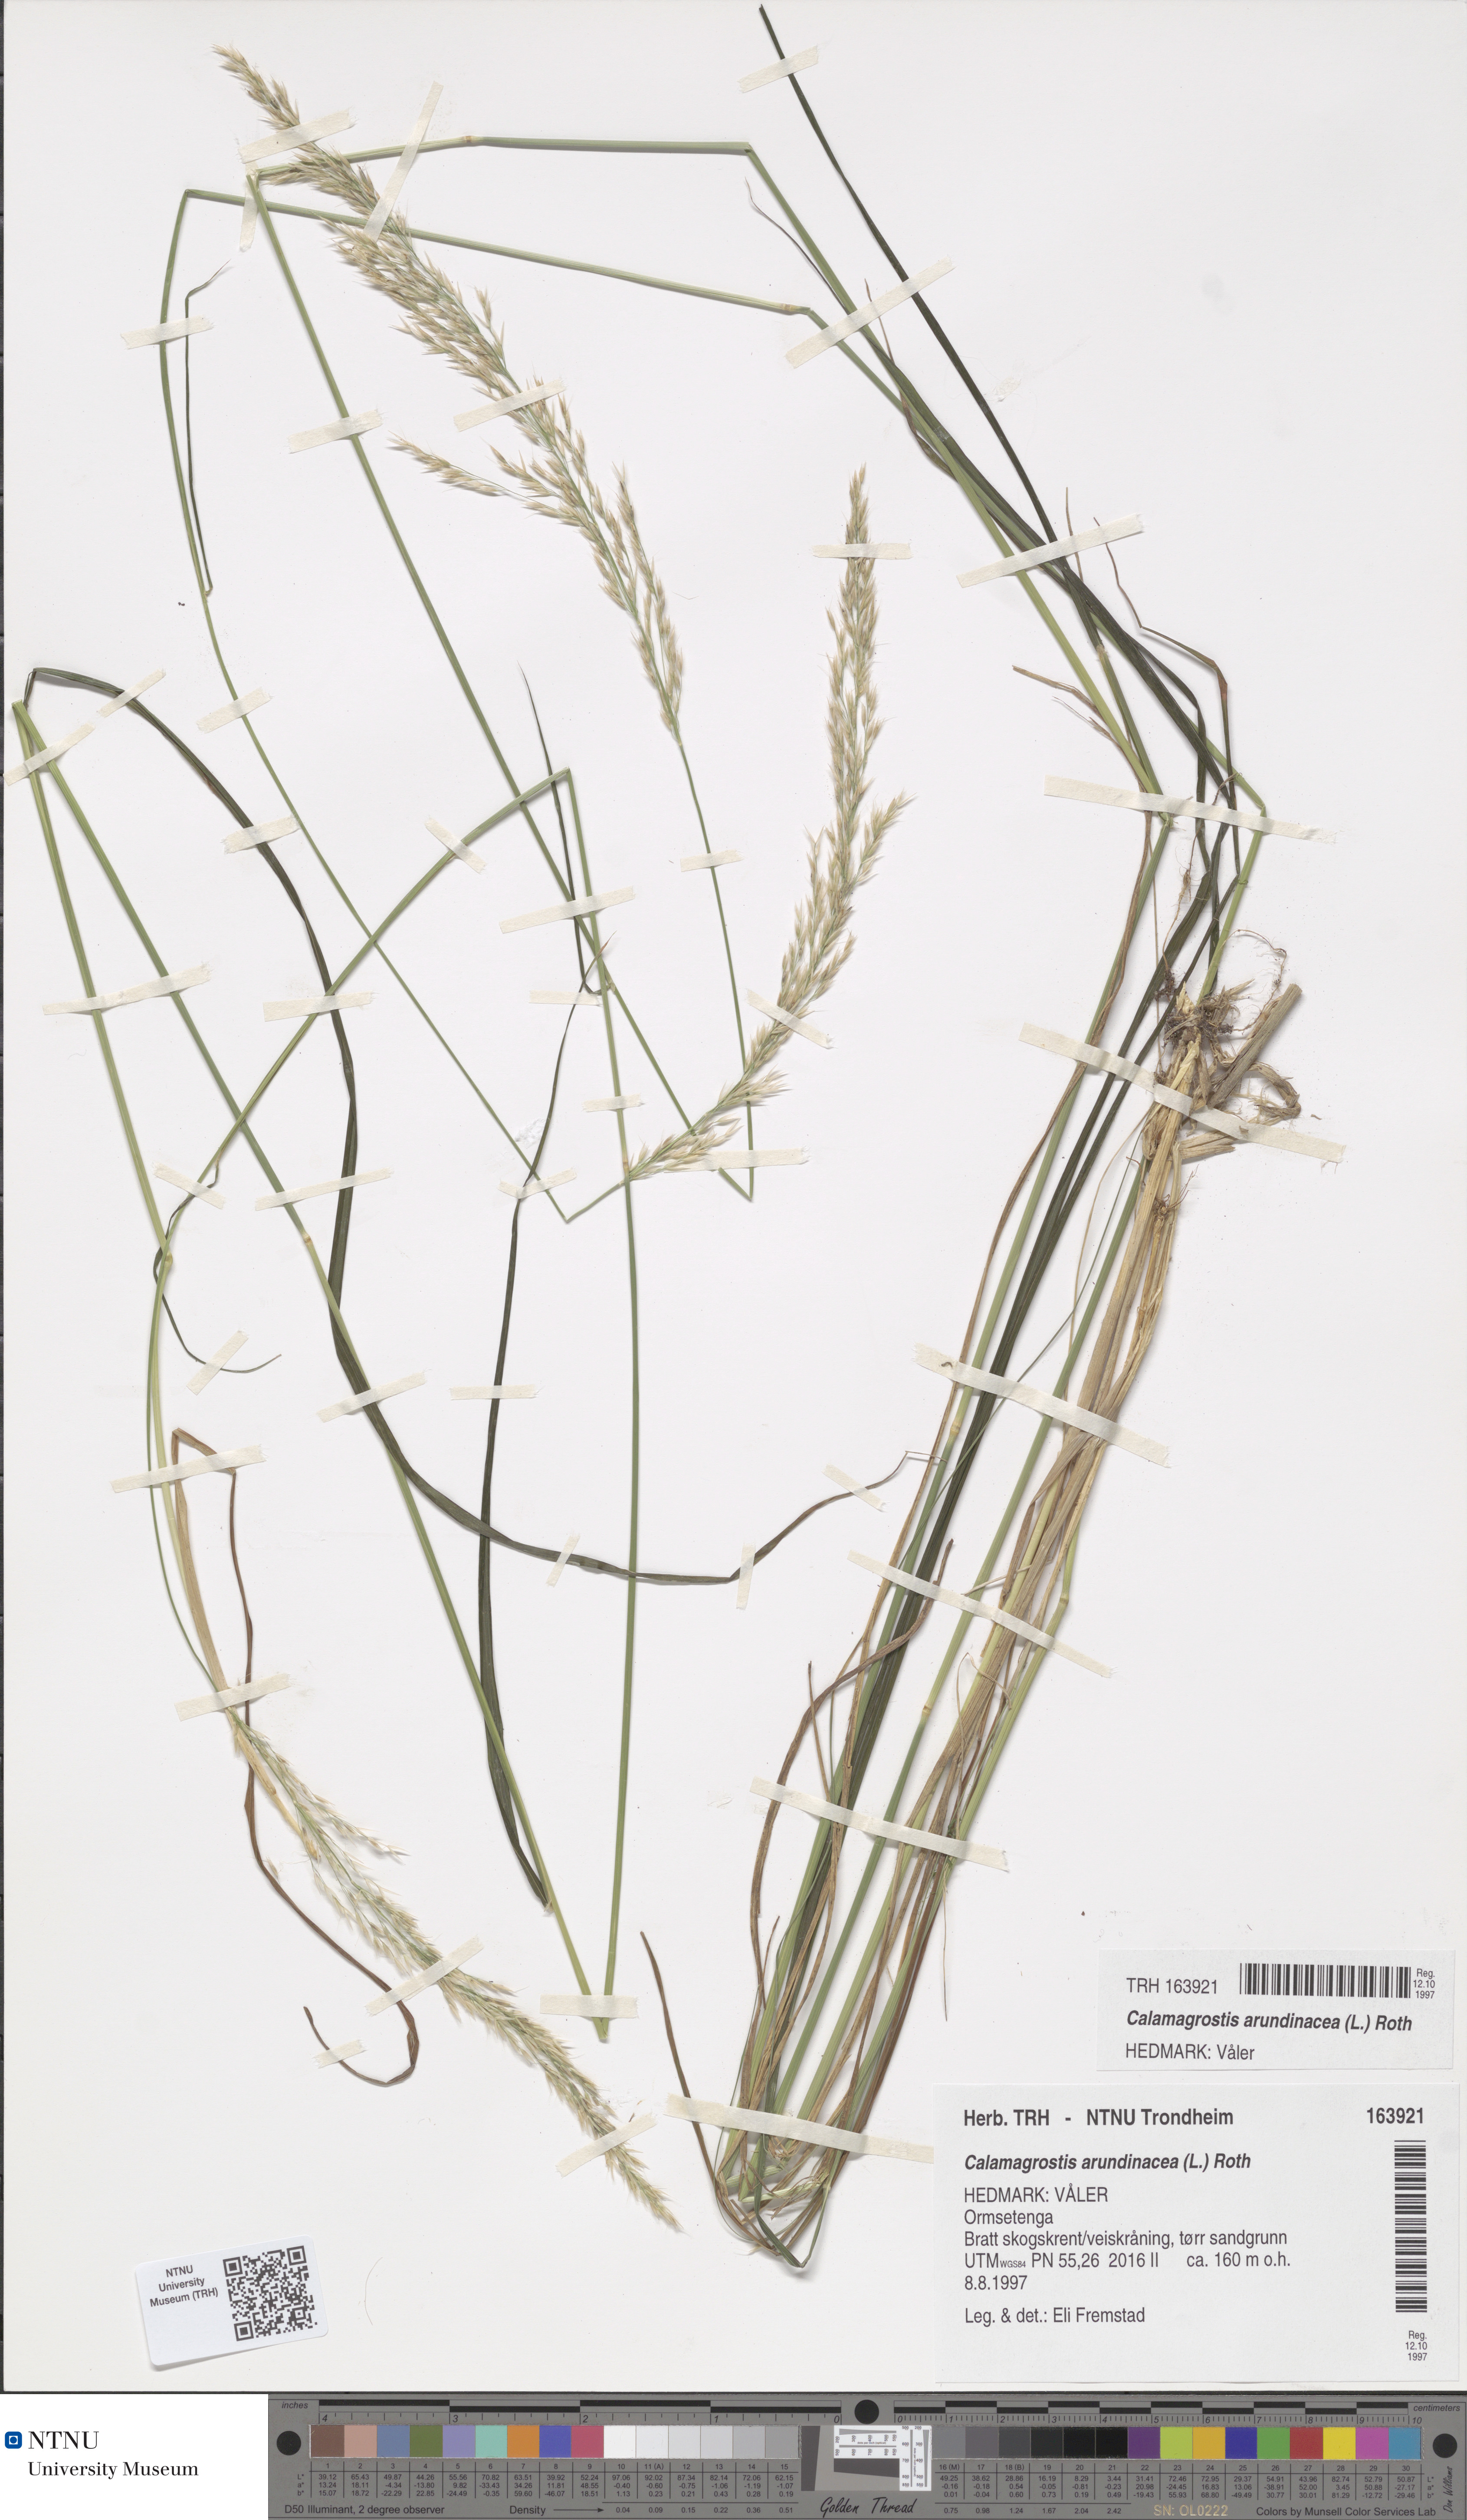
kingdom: Plantae
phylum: Tracheophyta
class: Liliopsida
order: Poales
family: Poaceae
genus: Calamagrostis
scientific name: Calamagrostis arundinacea
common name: Metskastik
